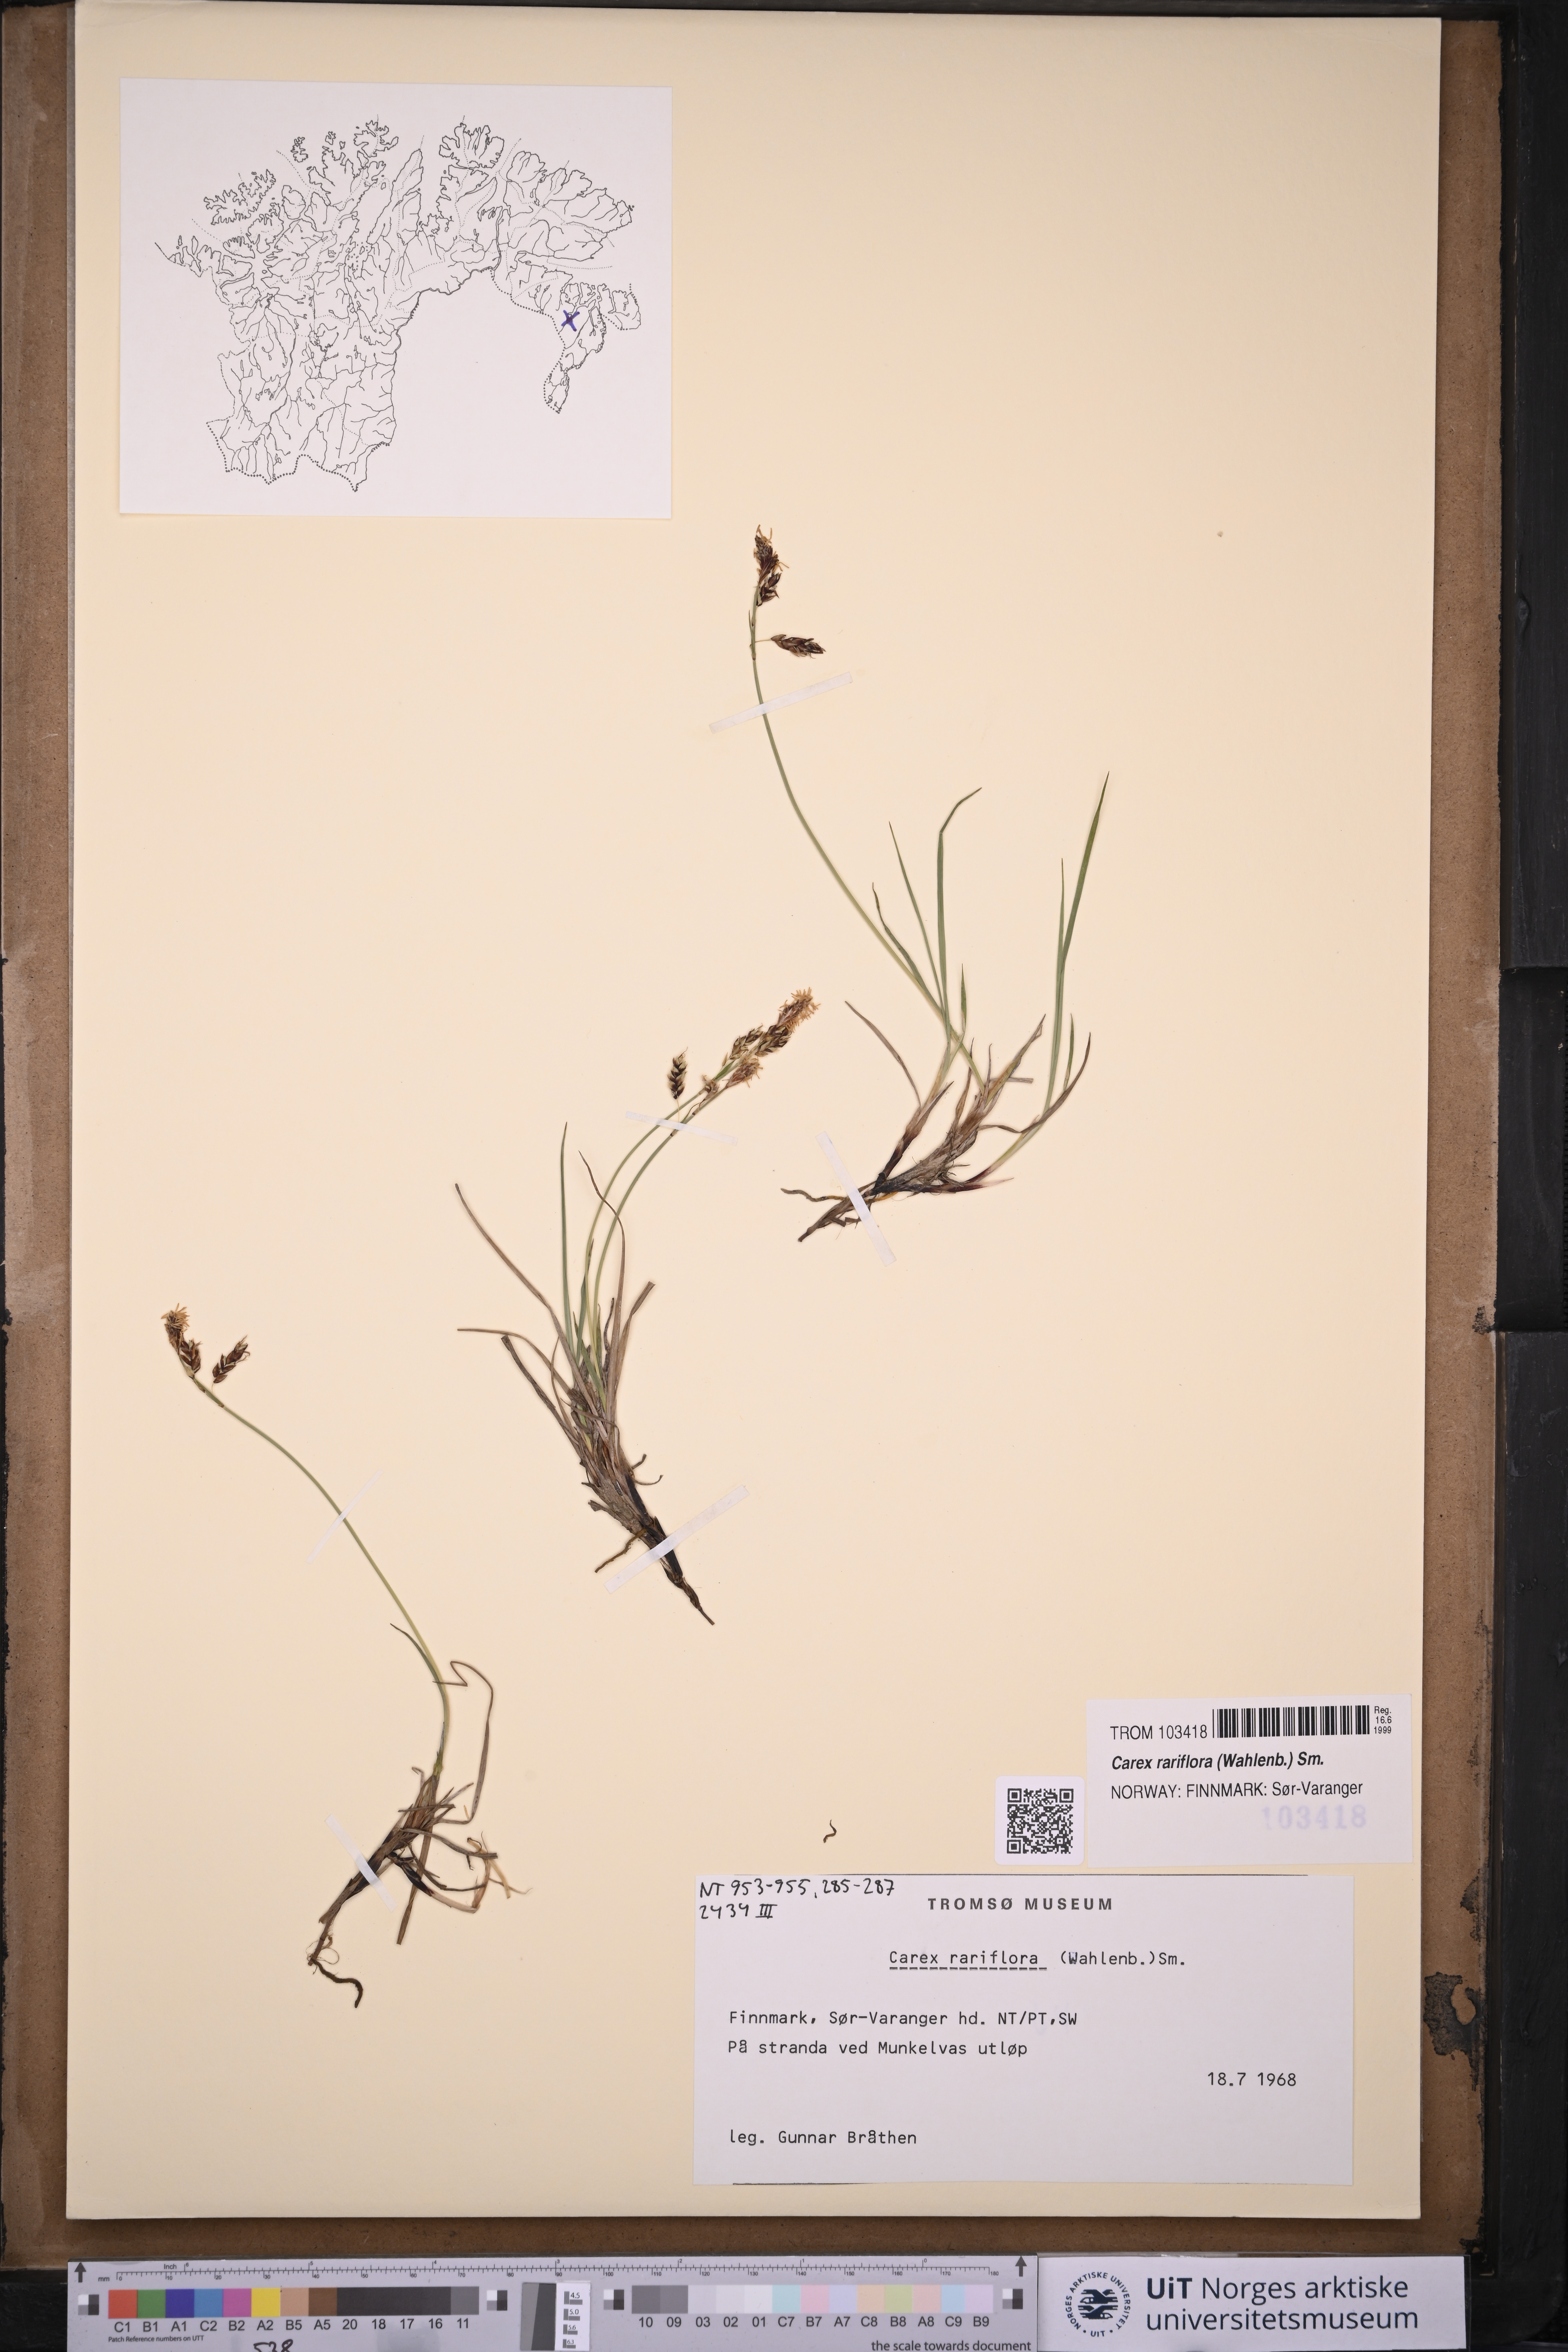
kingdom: Plantae
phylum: Tracheophyta
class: Liliopsida
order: Poales
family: Cyperaceae
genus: Carex
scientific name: Carex rariflora
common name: Loose-flowered alpine sedge
